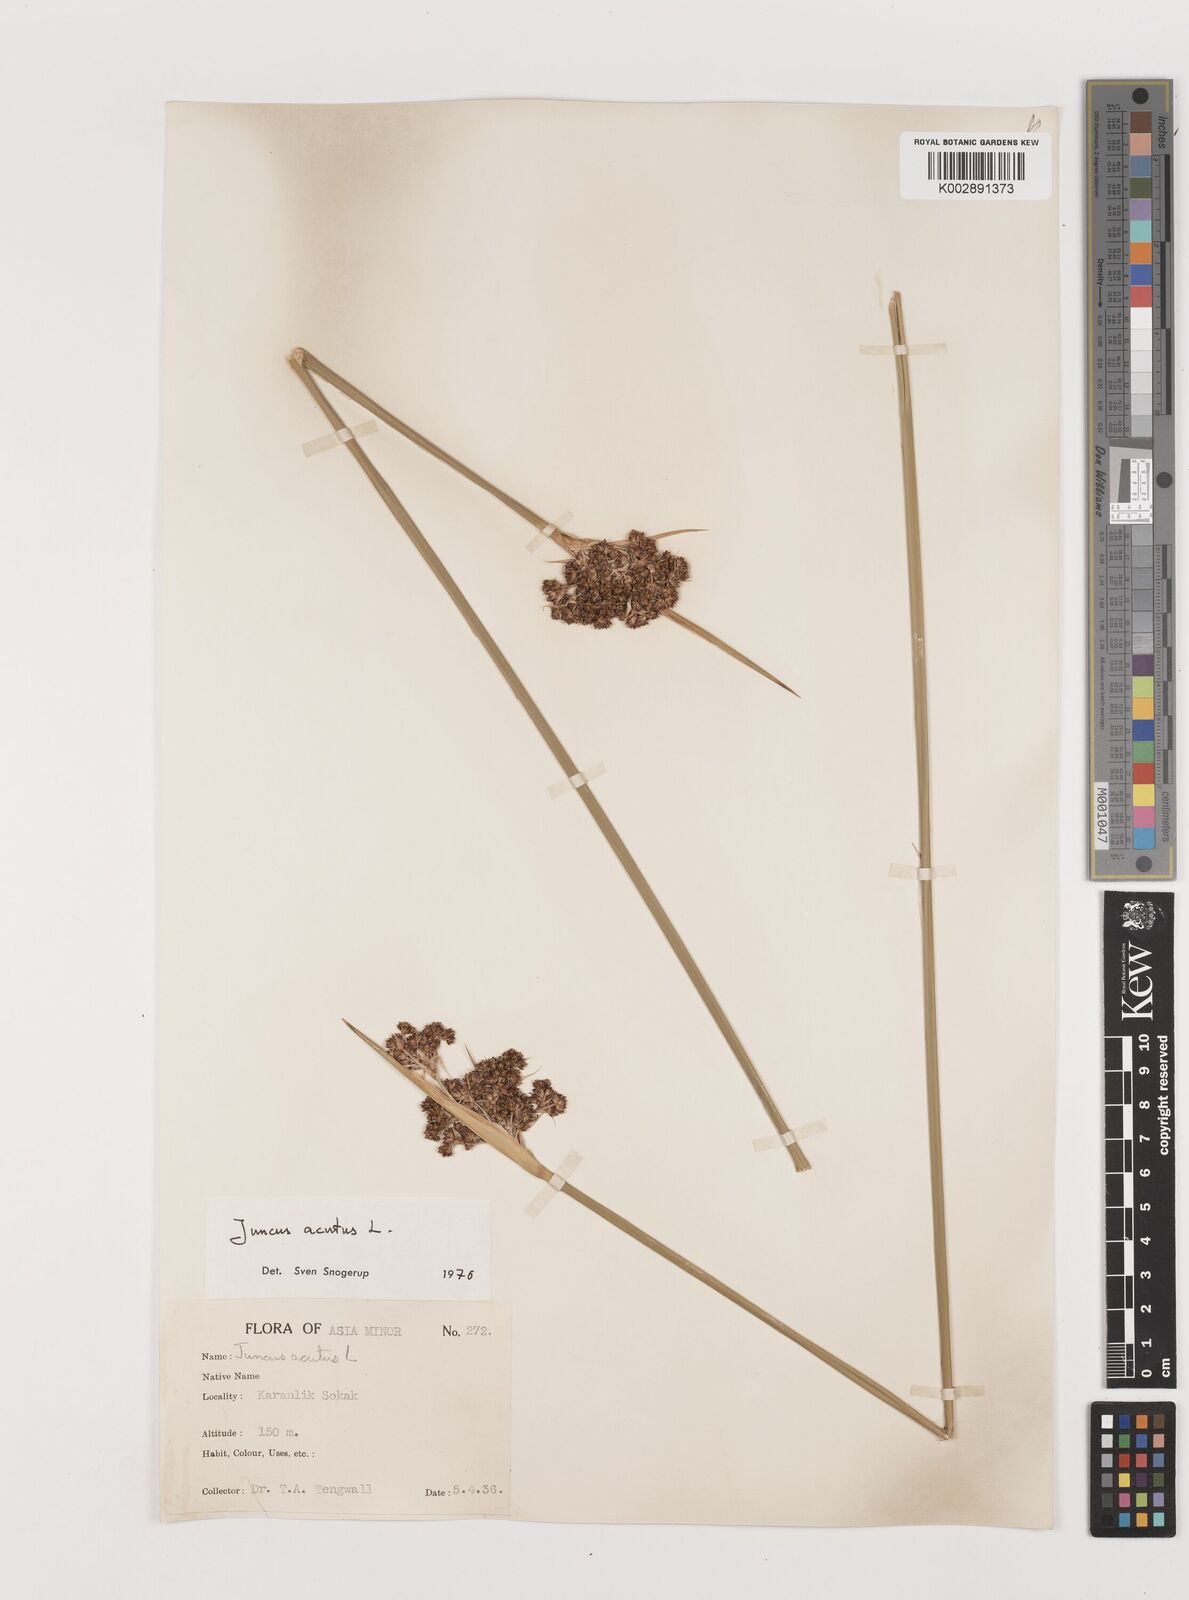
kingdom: Plantae
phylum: Tracheophyta
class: Liliopsida
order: Poales
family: Juncaceae
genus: Juncus
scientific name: Juncus acutus
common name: Sharp rush
